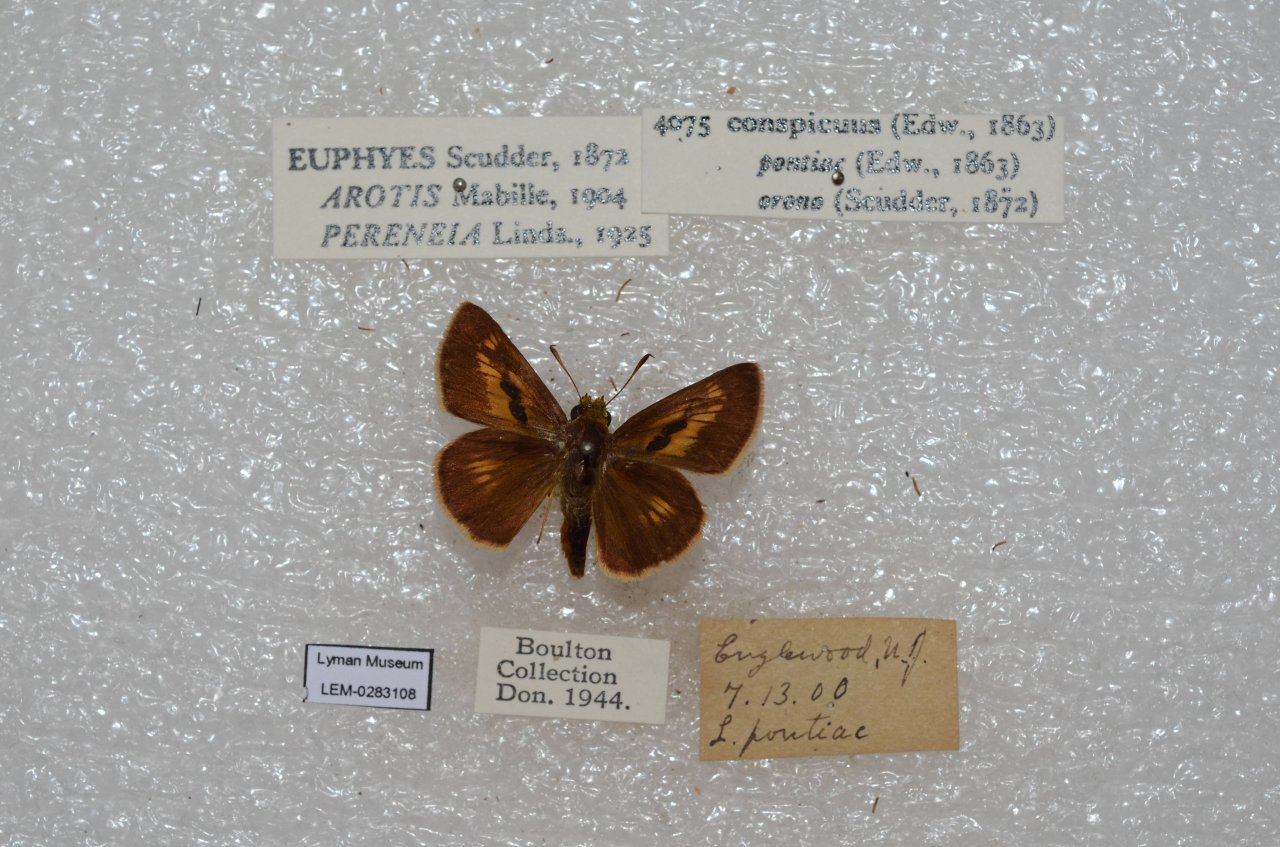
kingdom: Animalia
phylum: Arthropoda
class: Insecta
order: Lepidoptera
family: Hesperiidae
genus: Euphyes
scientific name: Euphyes conspicua
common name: Black Dash
